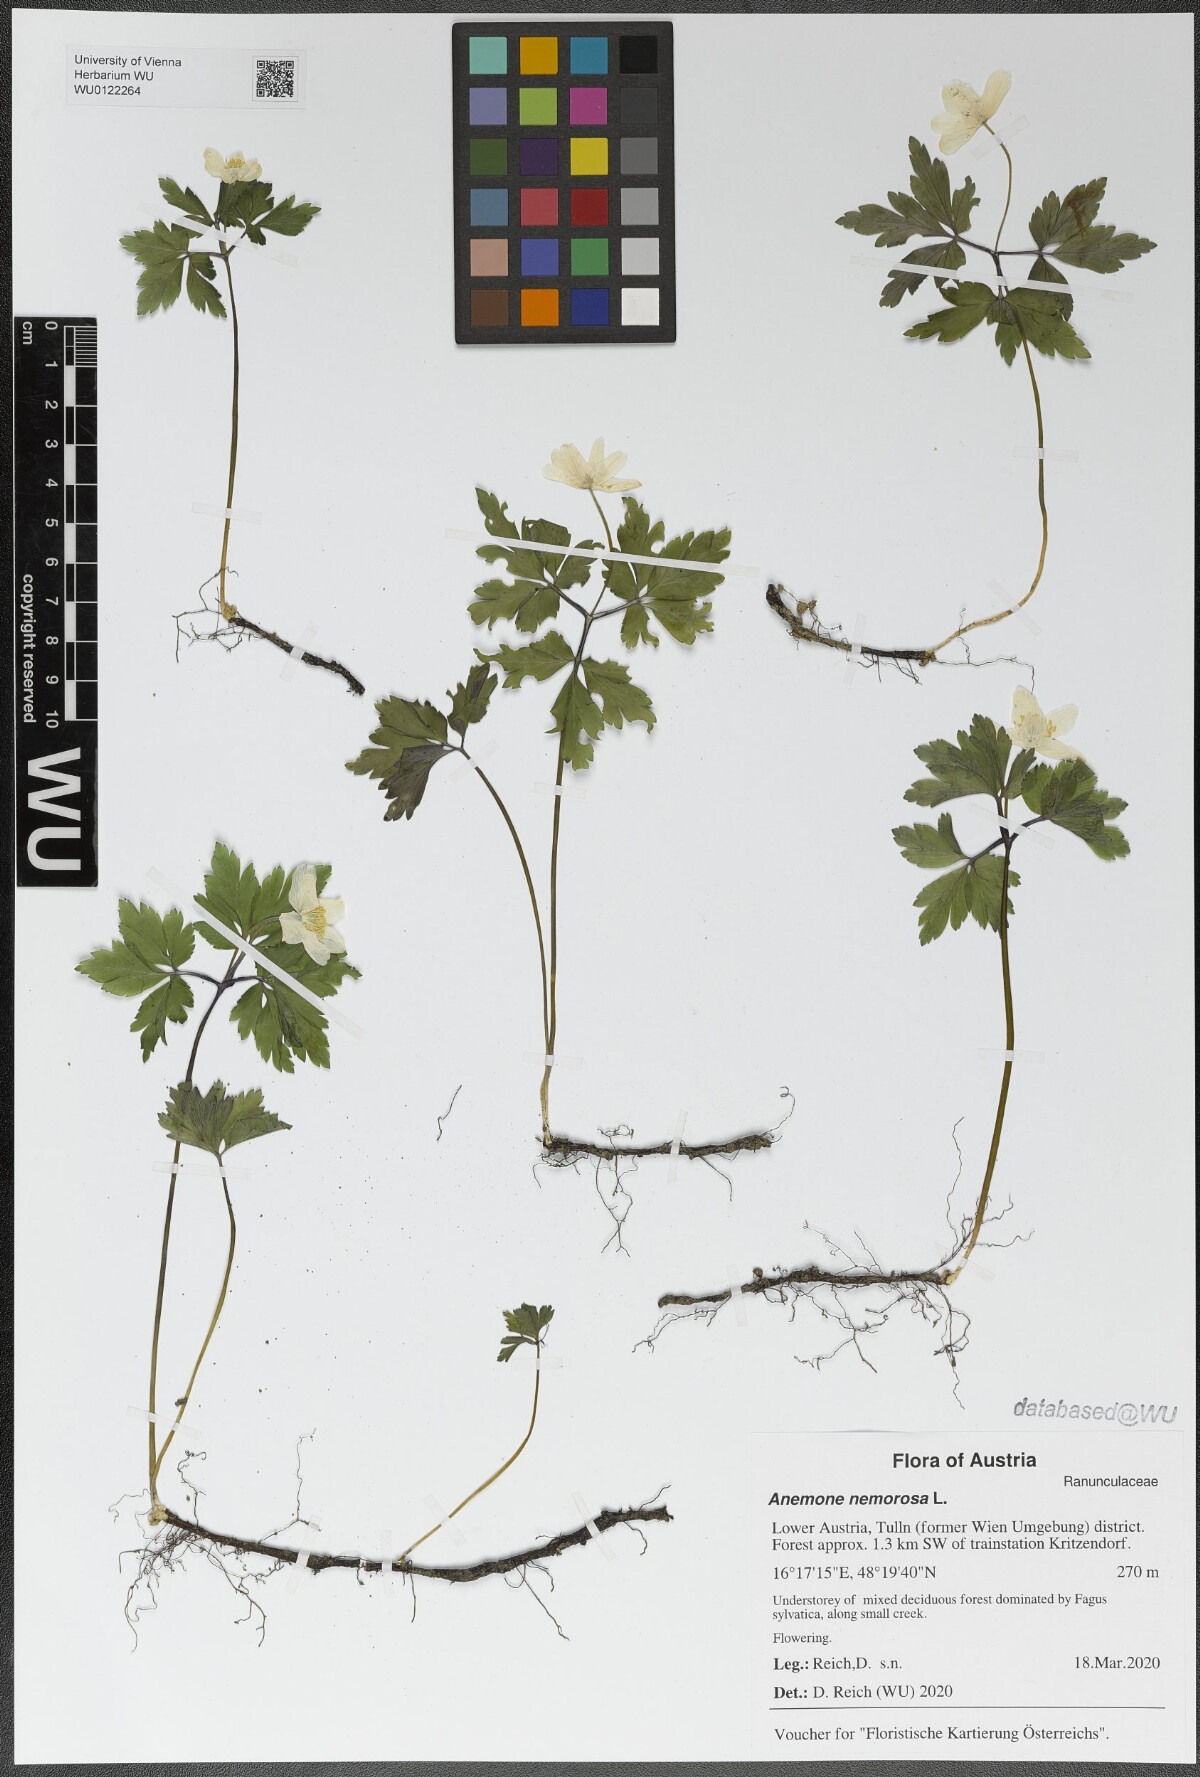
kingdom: Plantae
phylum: Tracheophyta
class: Magnoliopsida
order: Ranunculales
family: Ranunculaceae
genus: Anemone
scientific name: Anemone nemorosa
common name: Wood anemone
